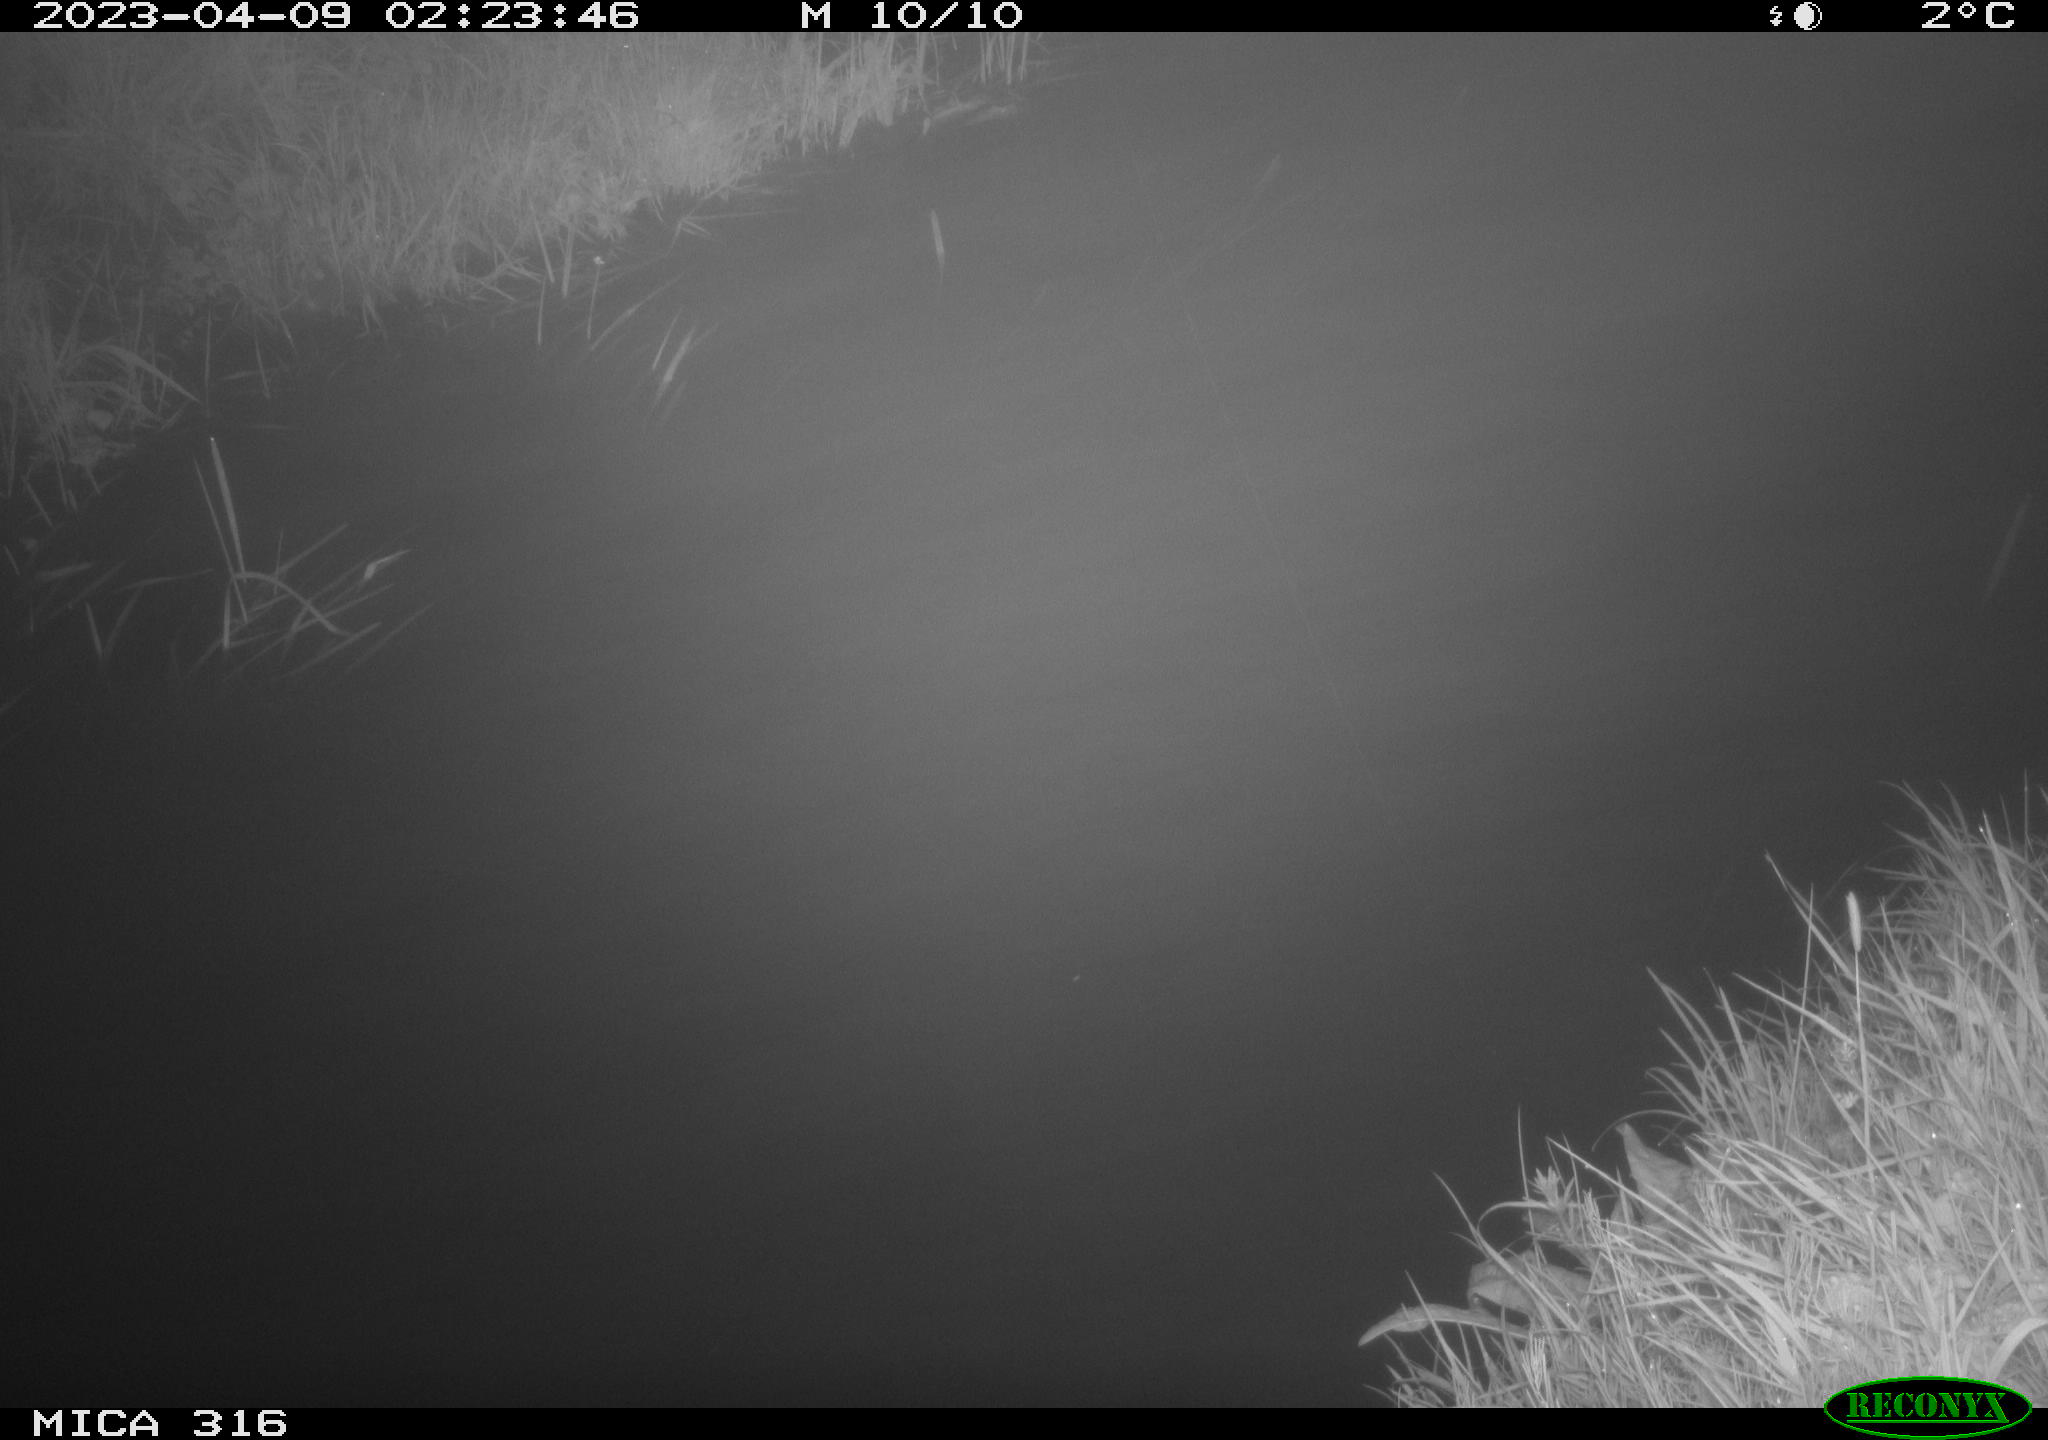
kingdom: Animalia
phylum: Chordata
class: Aves
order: Anseriformes
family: Anatidae
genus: Anas
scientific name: Anas
